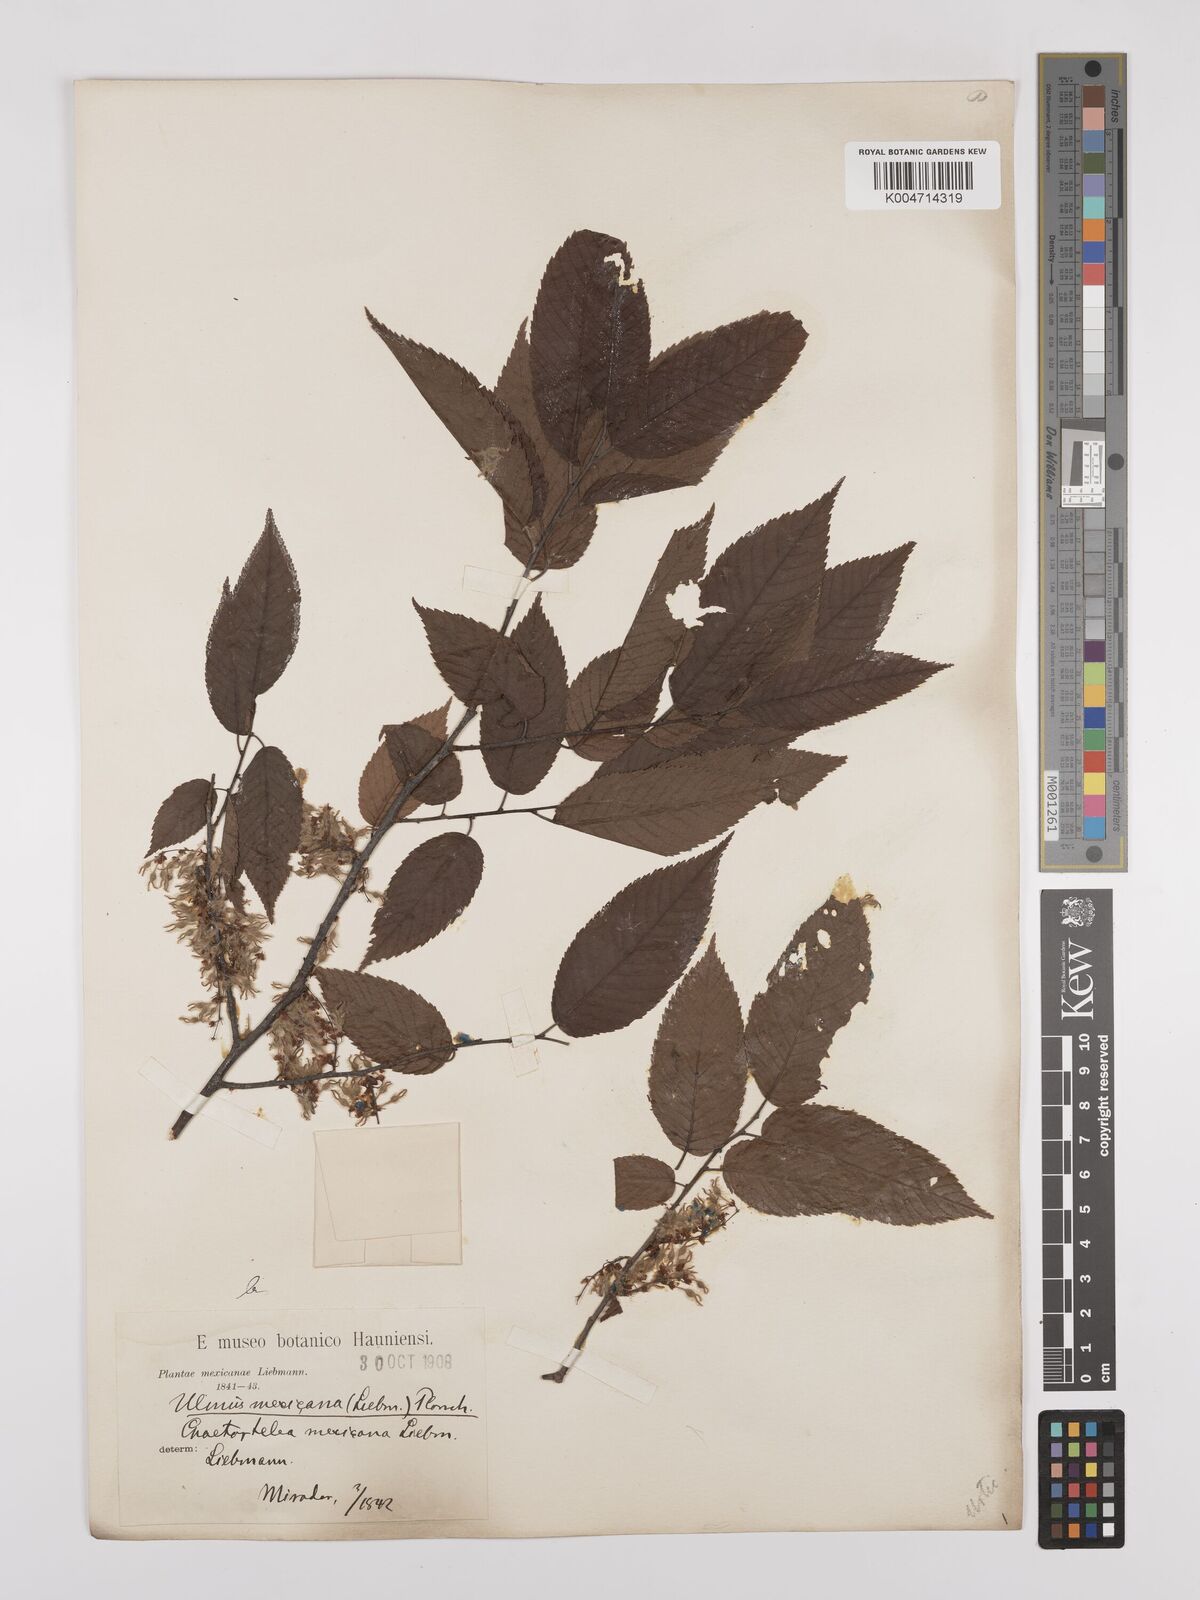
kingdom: Plantae
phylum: Tracheophyta
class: Magnoliopsida
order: Rosales
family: Ulmaceae
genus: Ulmus
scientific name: Ulmus mexicana
